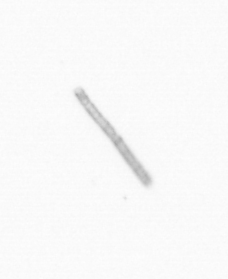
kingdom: Chromista
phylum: Ochrophyta
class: Bacillariophyceae
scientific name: Bacillariophyceae
